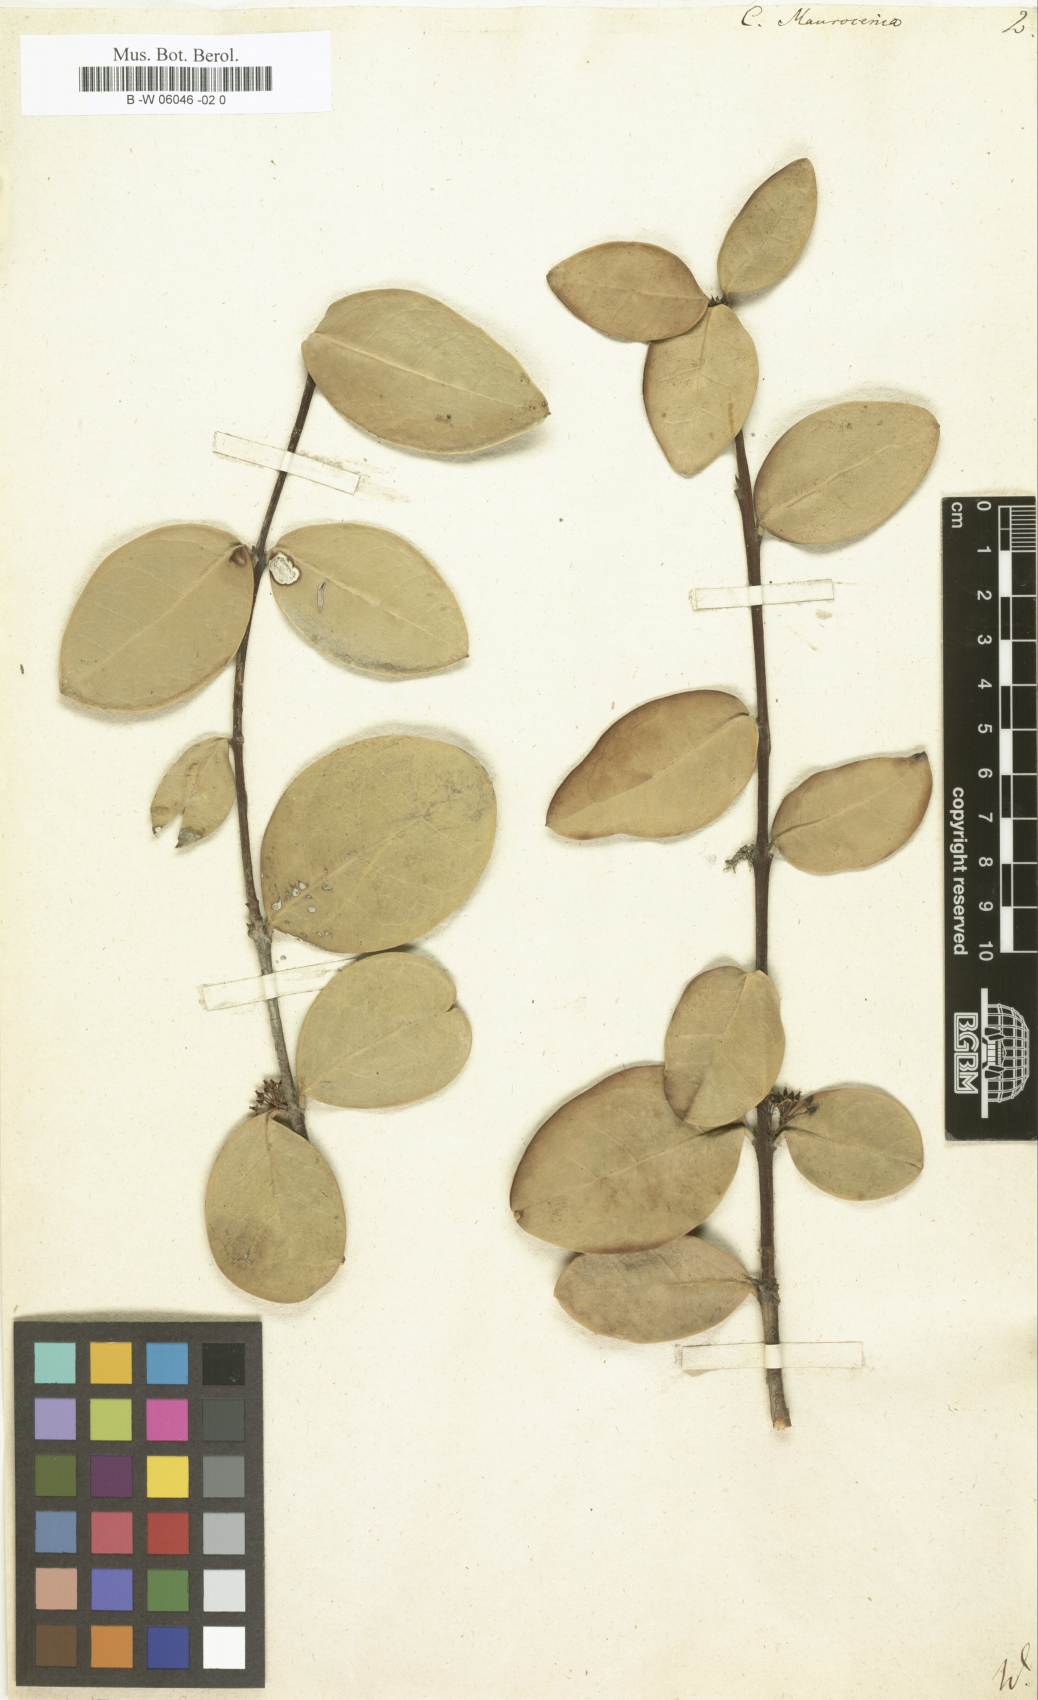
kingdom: Plantae
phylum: Tracheophyta
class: Magnoliopsida
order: Celastrales
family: Celastraceae
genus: Maurocenia
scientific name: Maurocenia frangula
